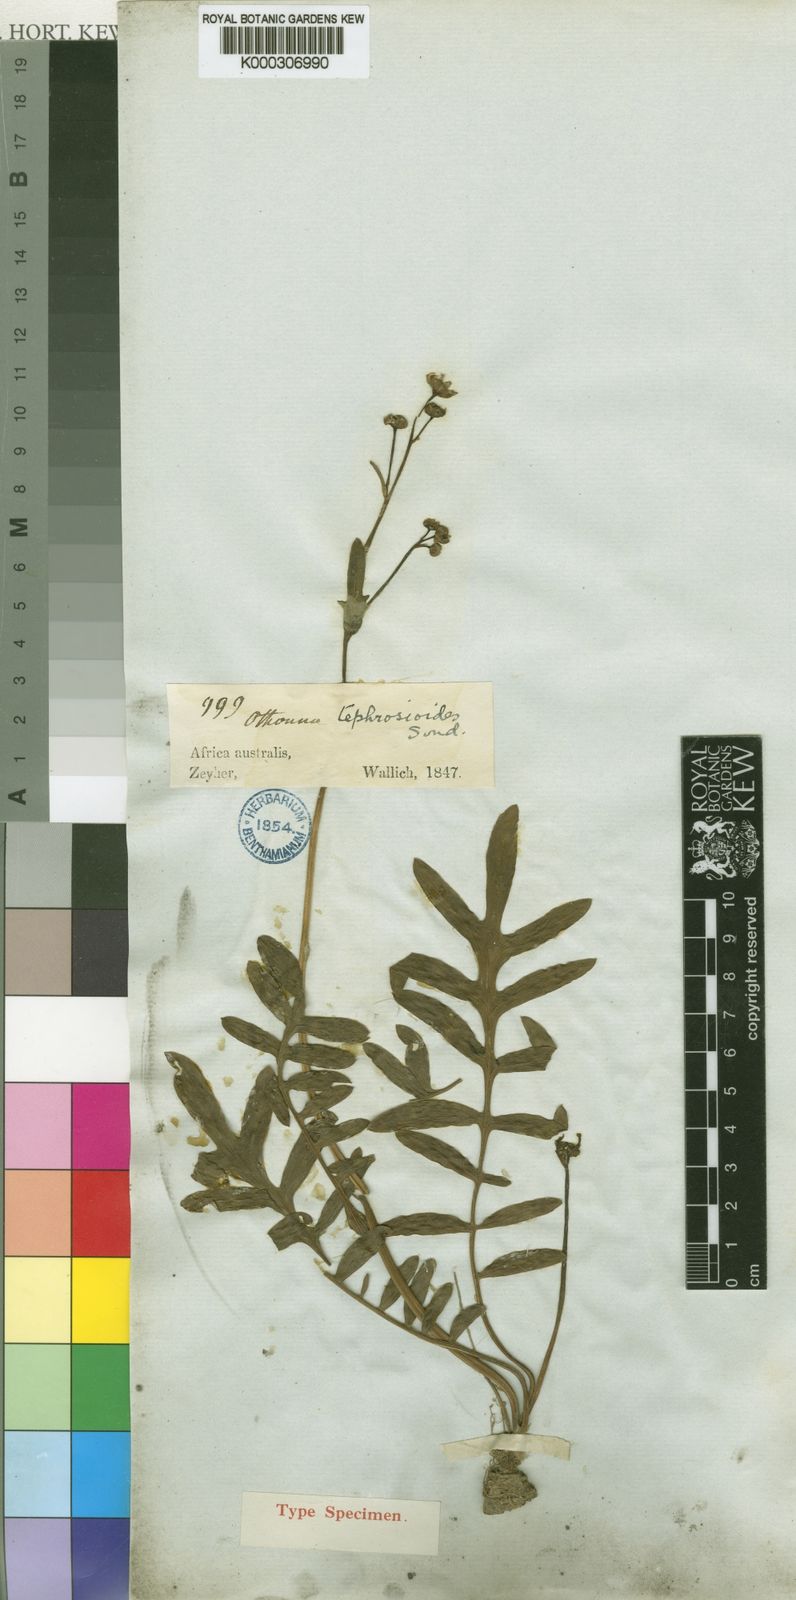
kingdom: Plantae
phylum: Tracheophyta
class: Magnoliopsida
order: Asterales
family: Asteraceae
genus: Othonna
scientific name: Othonna tephrosioides
